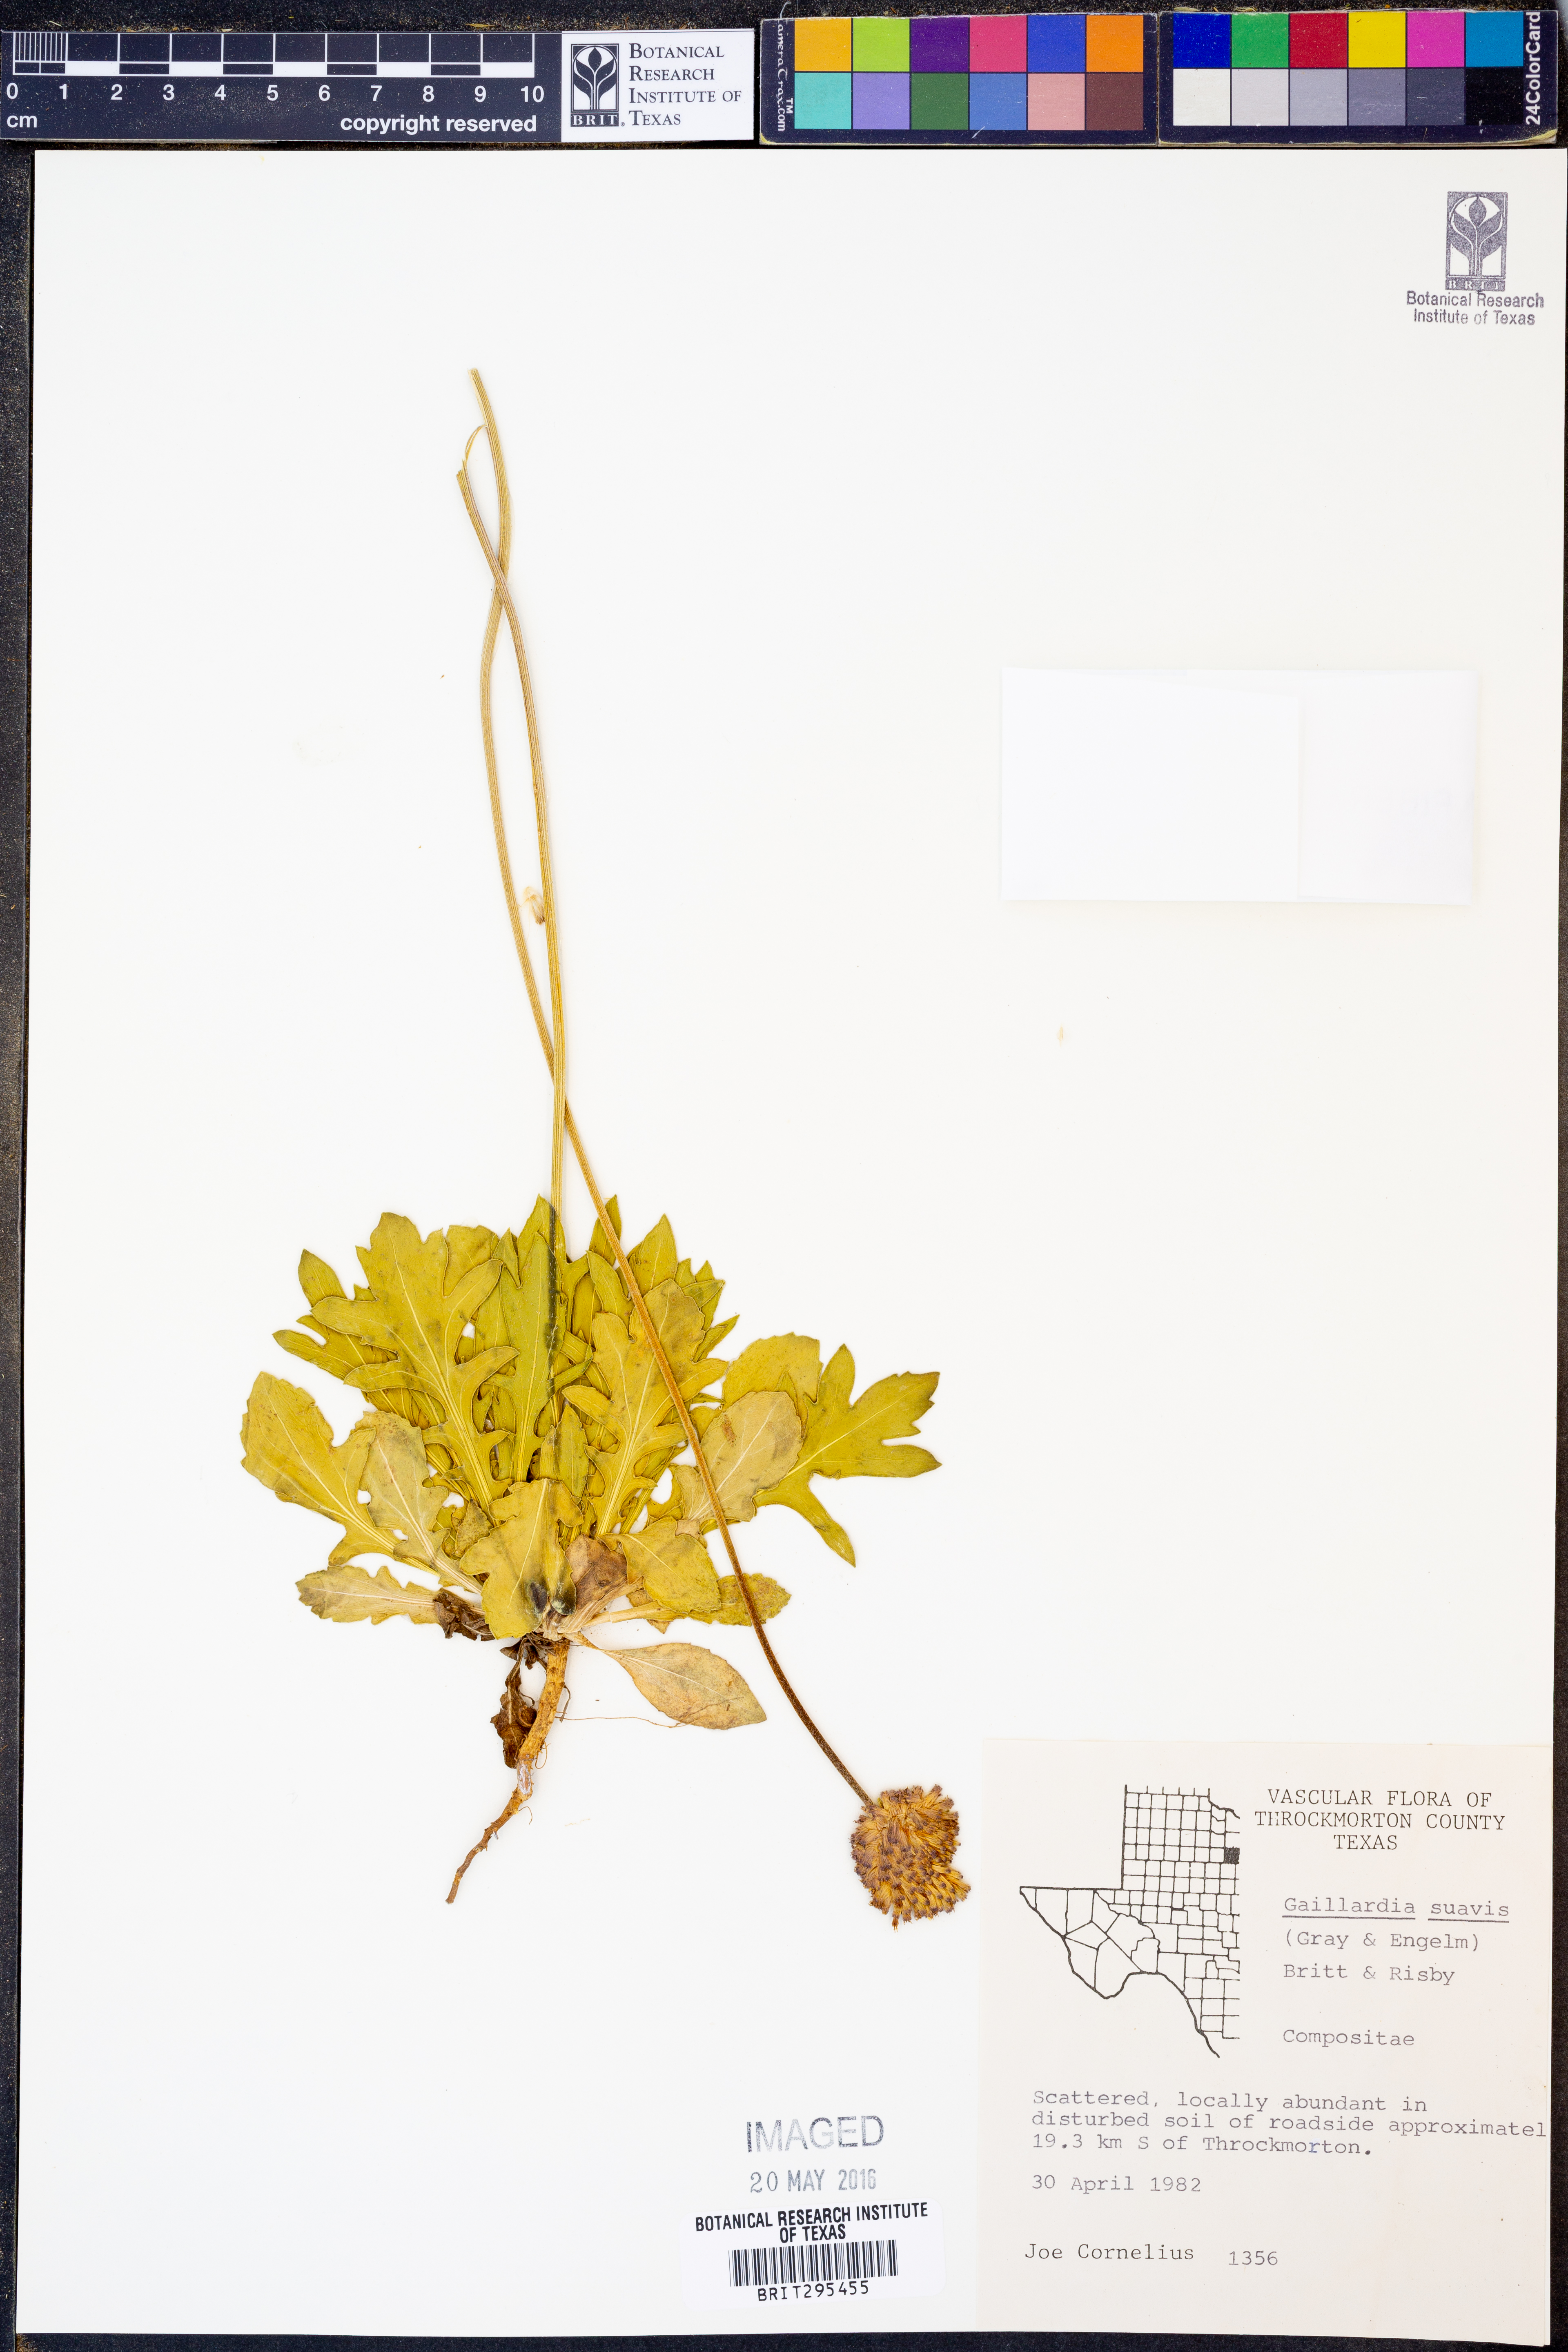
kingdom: Plantae
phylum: Tracheophyta
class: Magnoliopsida
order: Asterales
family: Asteraceae
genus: Gaillardia
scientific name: Gaillardia suavis
